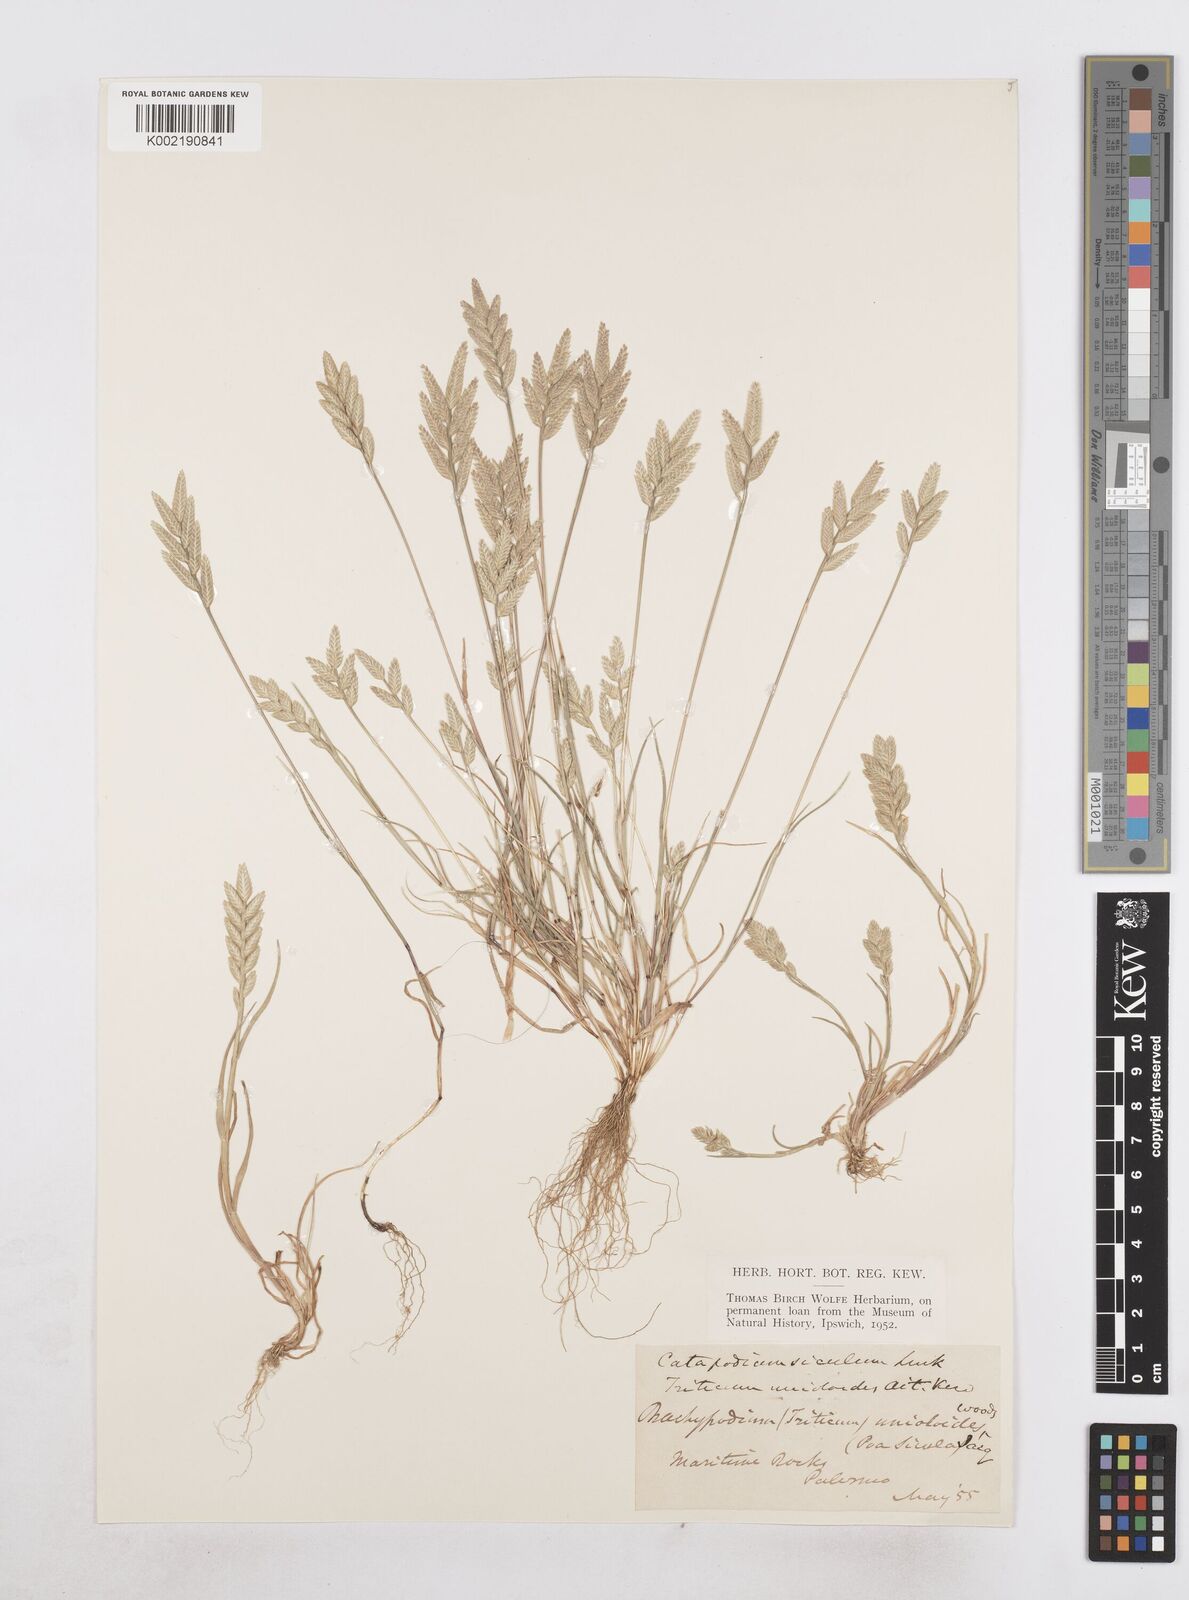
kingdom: Plantae
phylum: Tracheophyta
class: Liliopsida
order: Poales
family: Poaceae
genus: Desmazeria
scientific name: Desmazeria sicula
